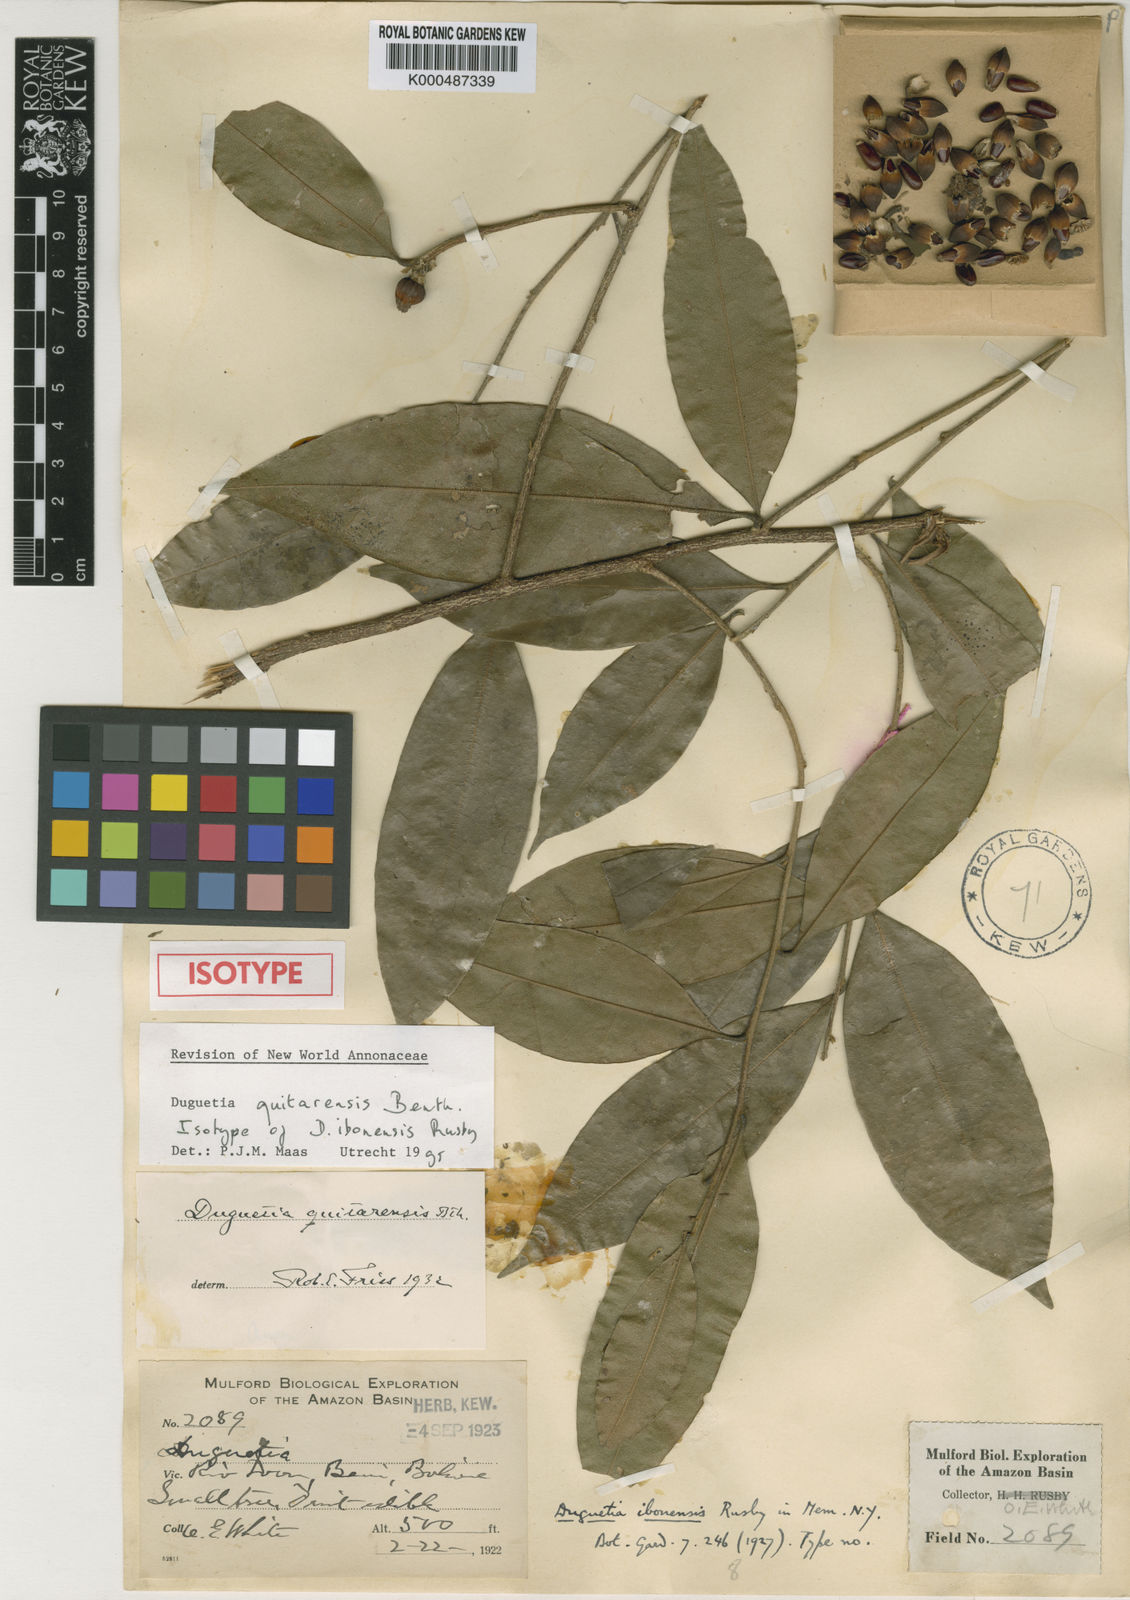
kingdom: Plantae
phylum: Tracheophyta
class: Magnoliopsida
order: Magnoliales
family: Annonaceae
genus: Duguetia
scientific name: Duguetia quitarensis
